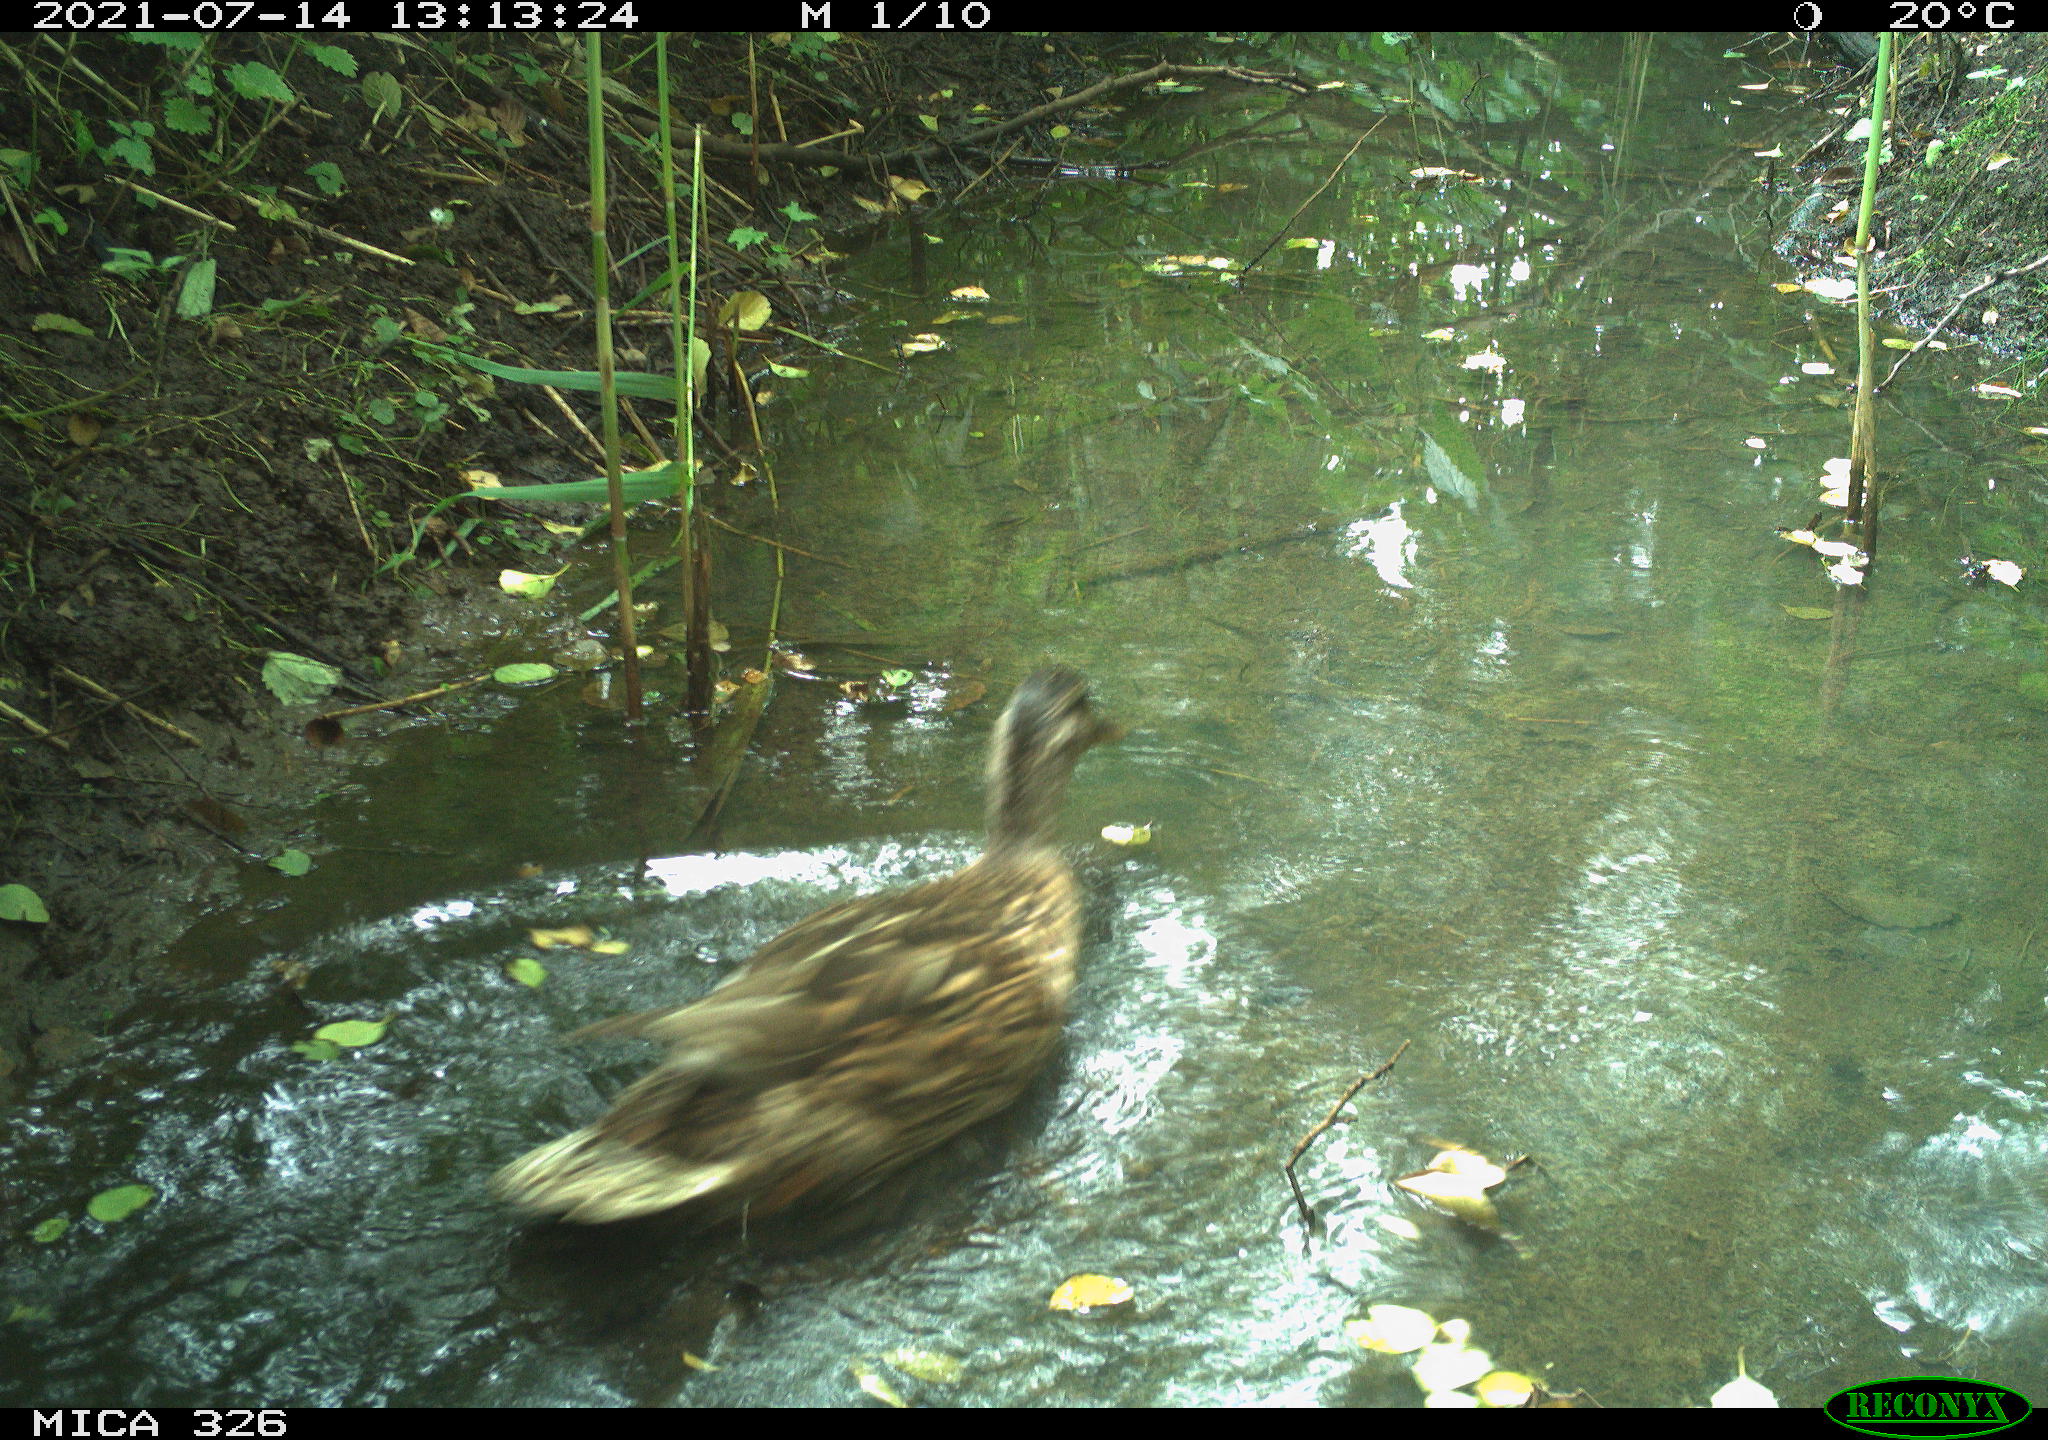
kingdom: Animalia
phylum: Chordata
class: Aves
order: Anseriformes
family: Anatidae
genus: Anas
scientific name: Anas platyrhynchos
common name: Mallard
